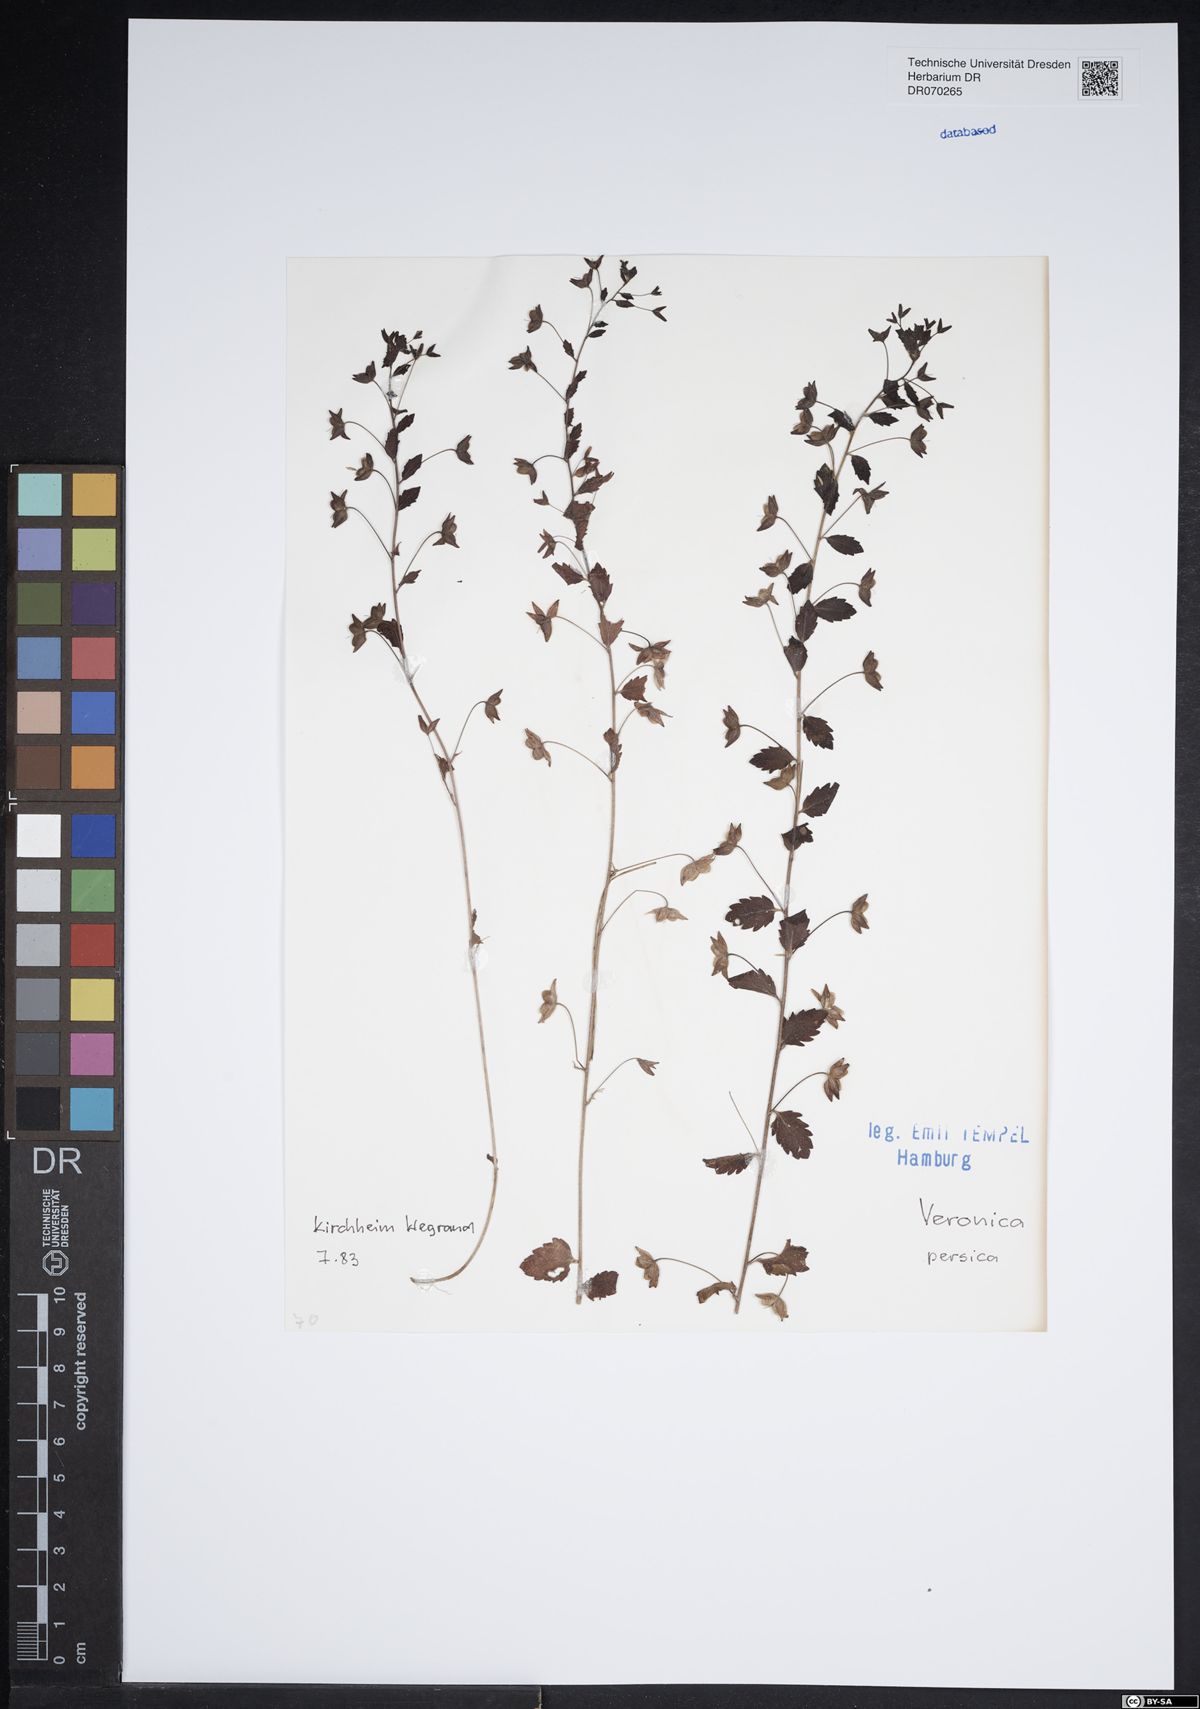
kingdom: Plantae
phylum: Tracheophyta
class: Magnoliopsida
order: Lamiales
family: Plantaginaceae
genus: Veronica
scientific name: Veronica persica
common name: Common field-speedwell
